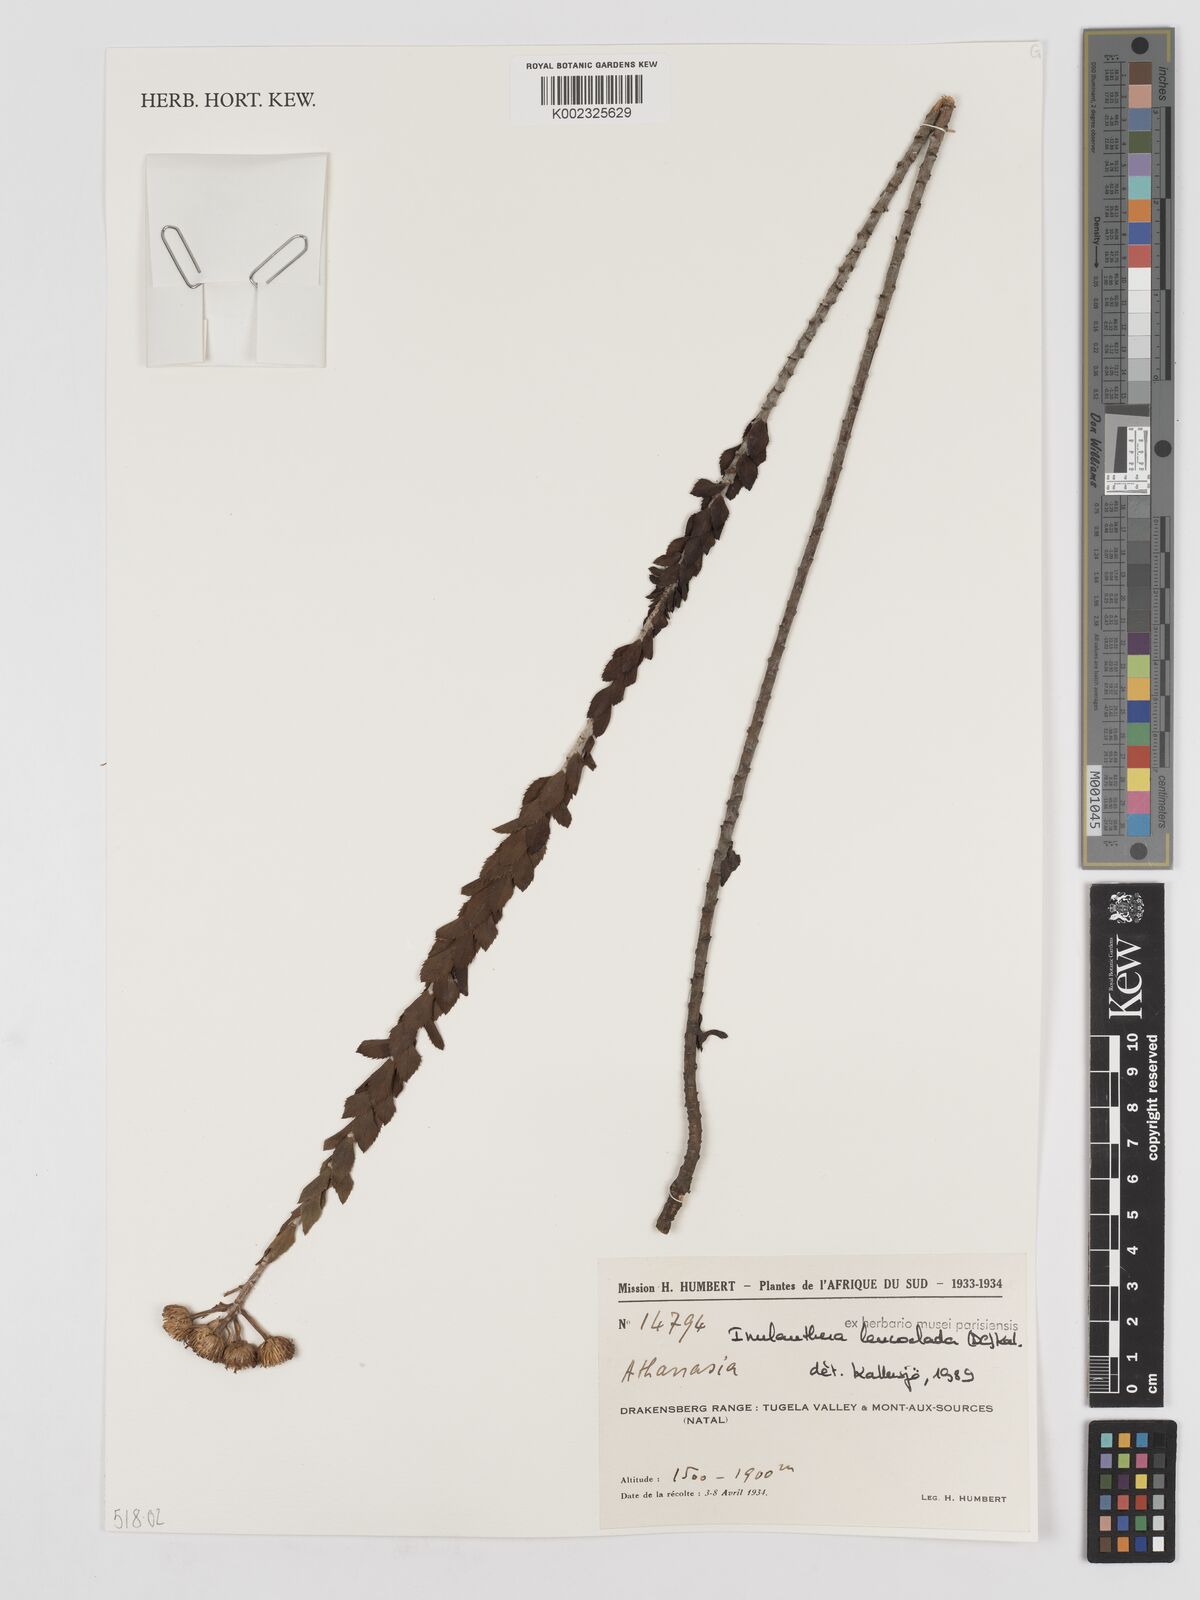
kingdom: Plantae
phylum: Tracheophyta
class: Magnoliopsida
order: Asterales
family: Asteraceae
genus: Inulanthera
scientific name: Inulanthera leucoclada
